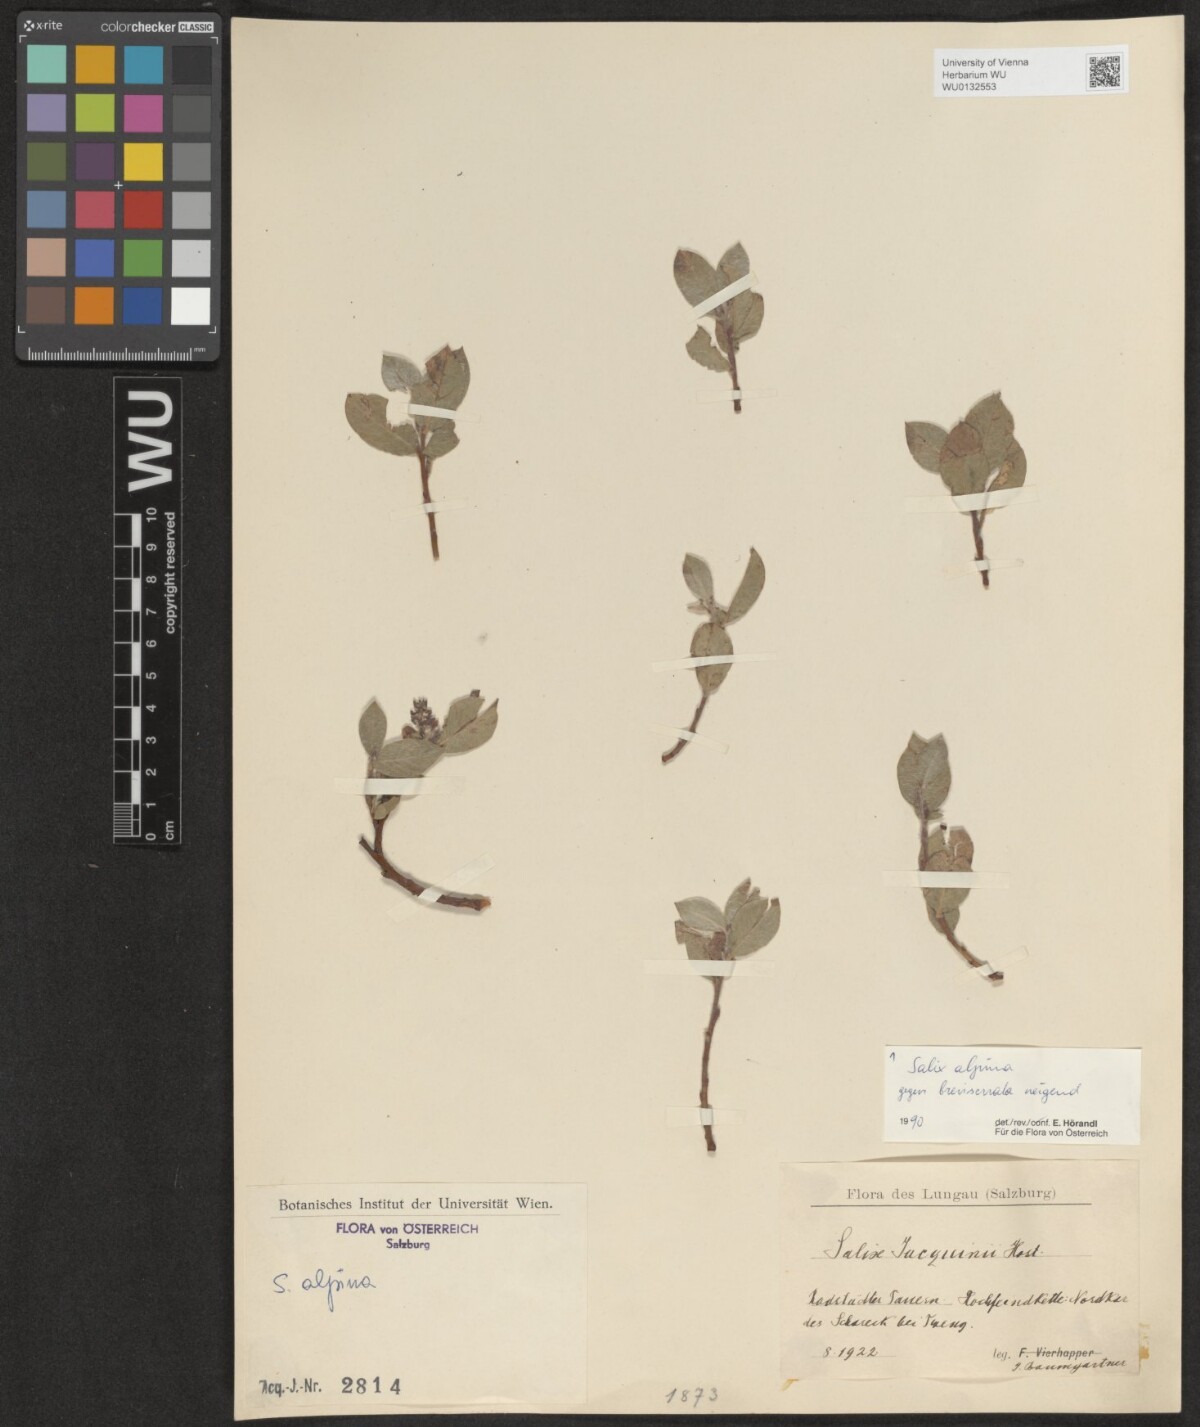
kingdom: Plantae
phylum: Tracheophyta
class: Magnoliopsida
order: Malpighiales
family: Salicaceae
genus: Salix
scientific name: Salix alpina
